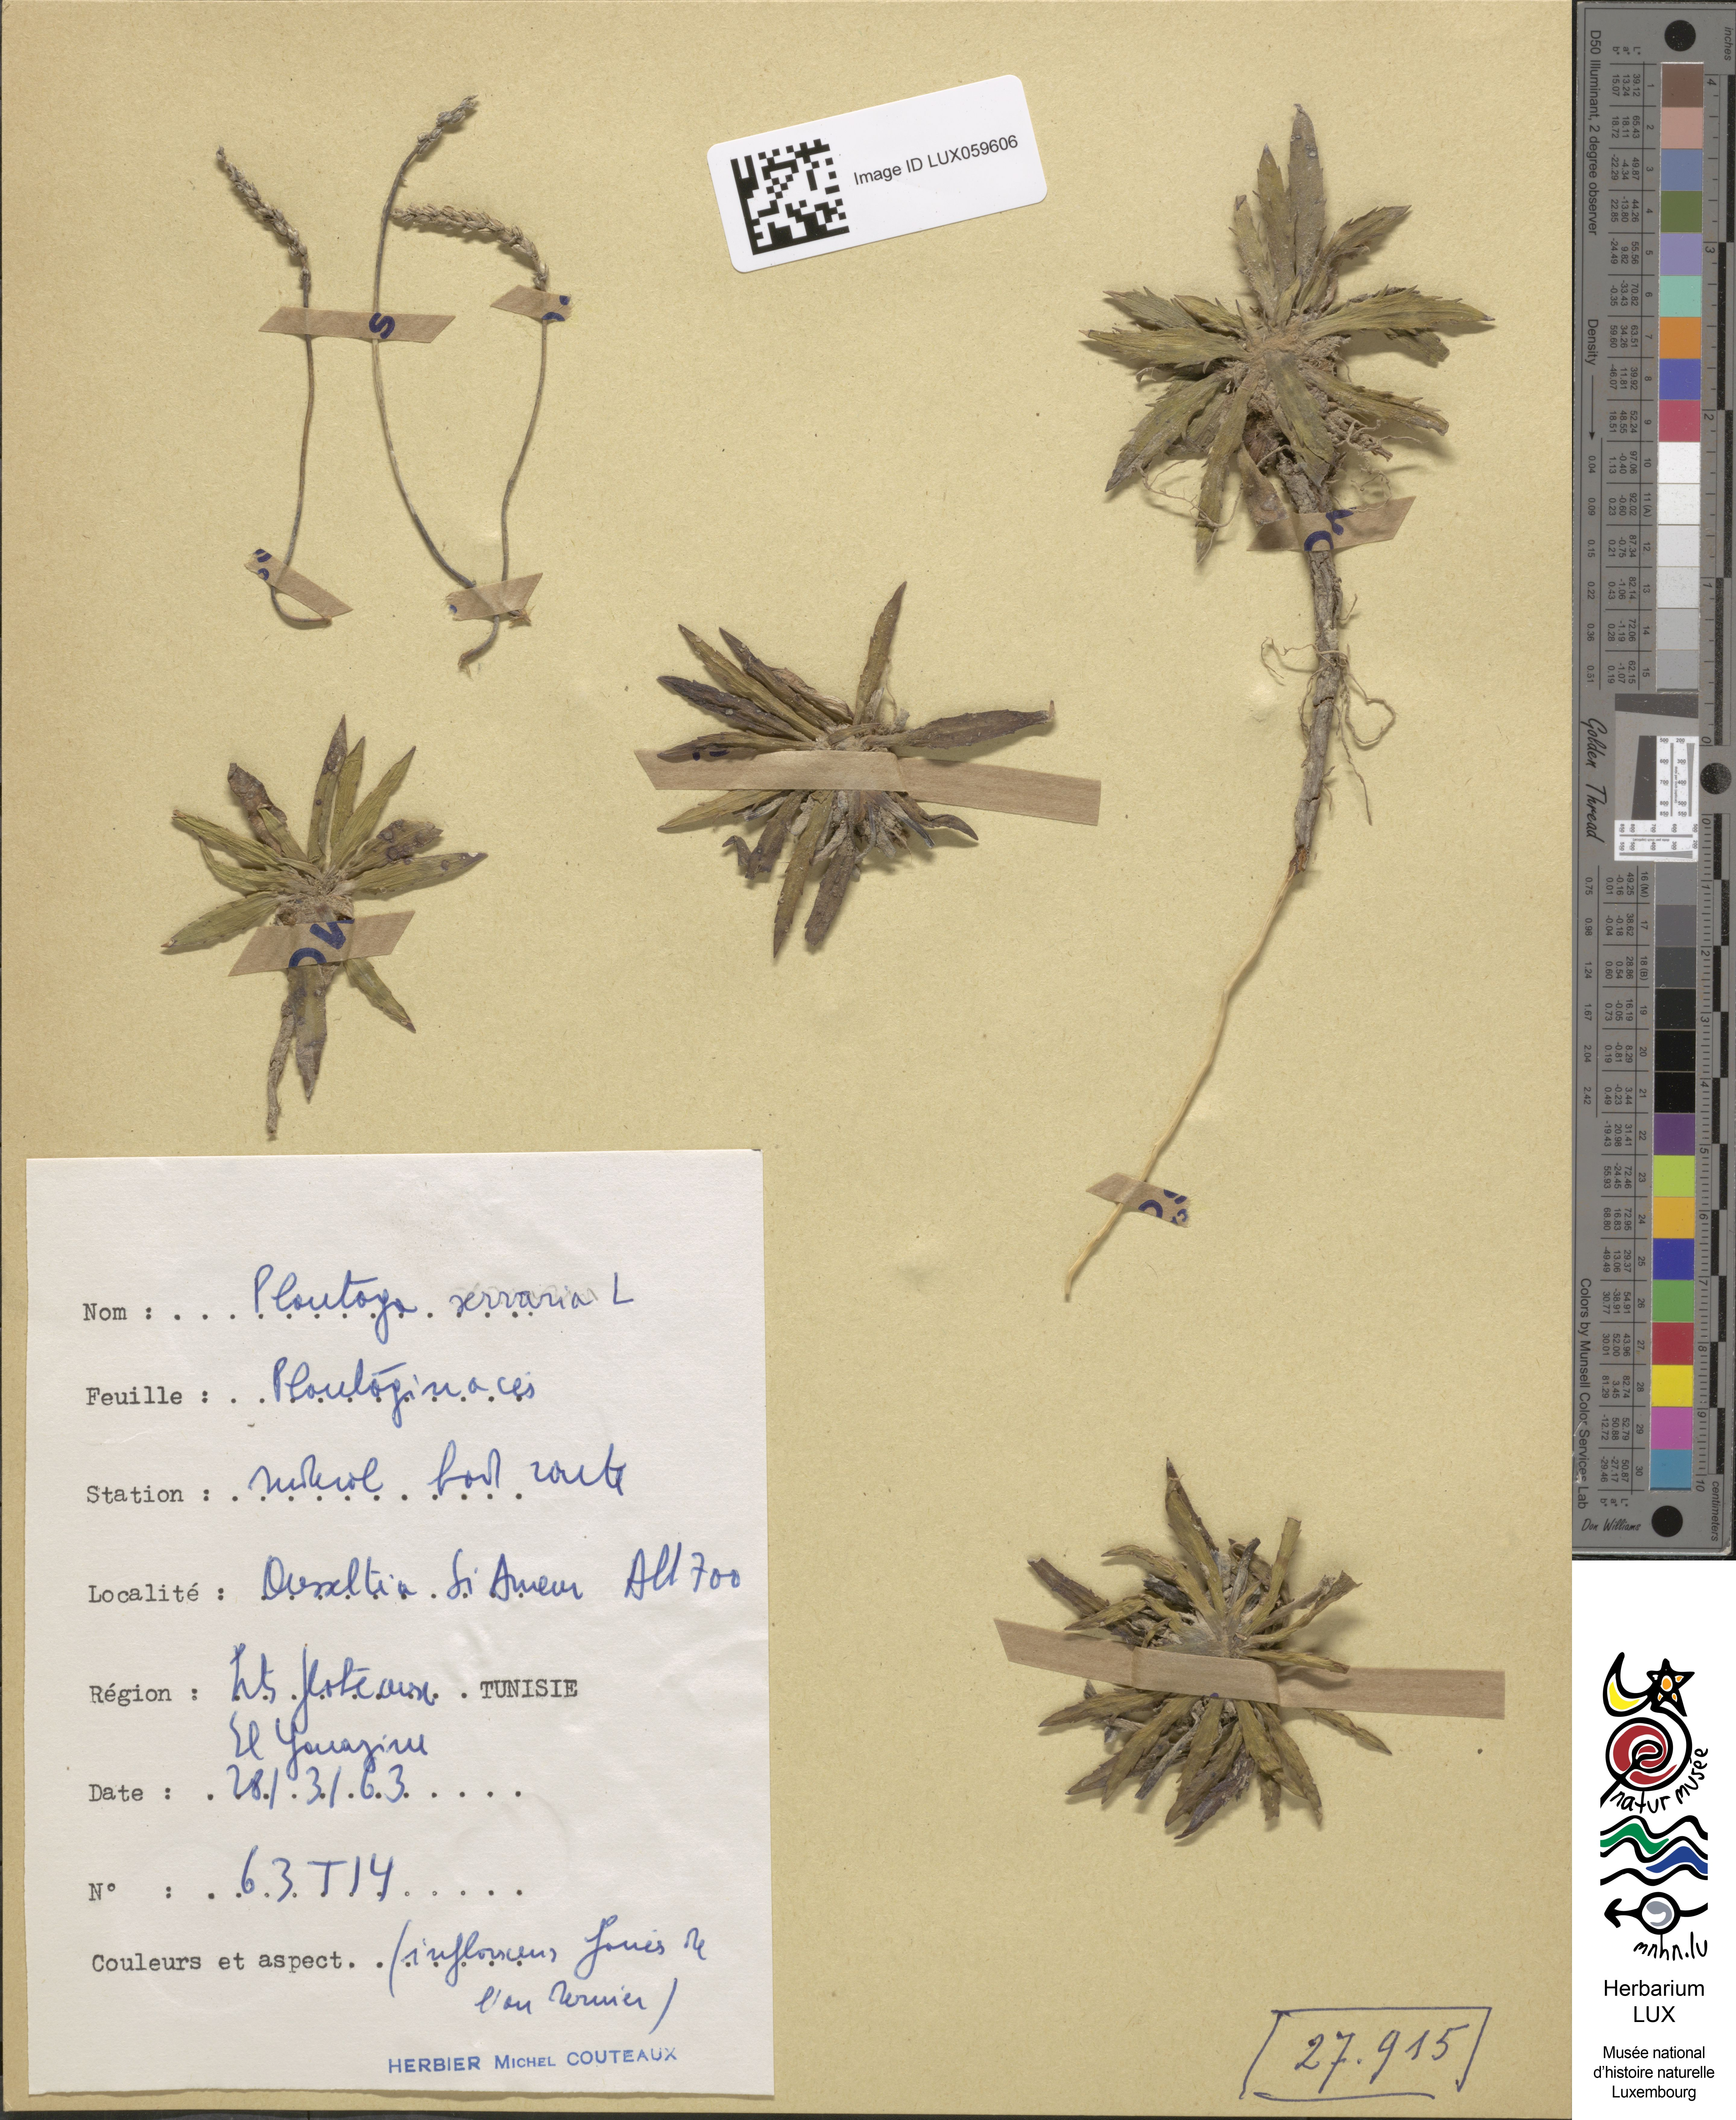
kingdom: Plantae
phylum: Tracheophyta
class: Magnoliopsida
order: Lamiales
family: Plantaginaceae
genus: Plantago
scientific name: Plantago serraria
